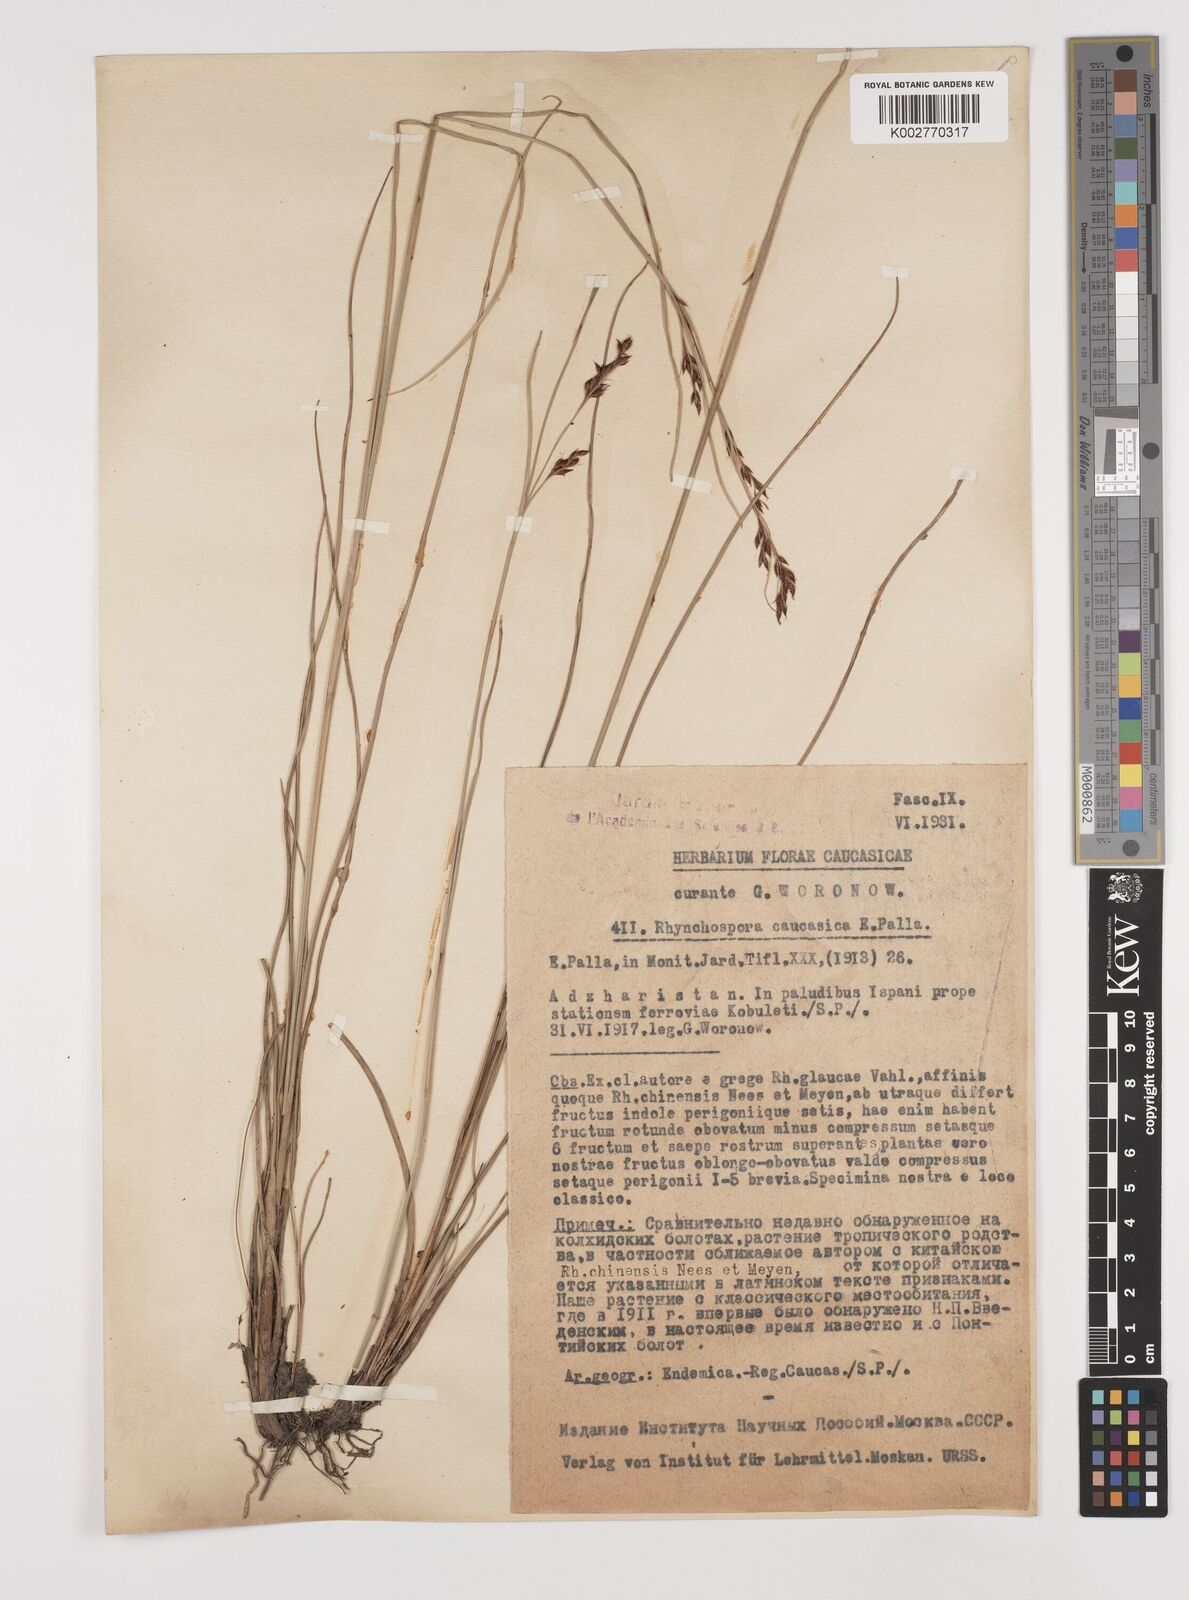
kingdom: Plantae
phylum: Tracheophyta
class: Liliopsida
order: Poales
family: Cyperaceae
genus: Rhynchospora
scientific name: Rhynchospora caucasica
